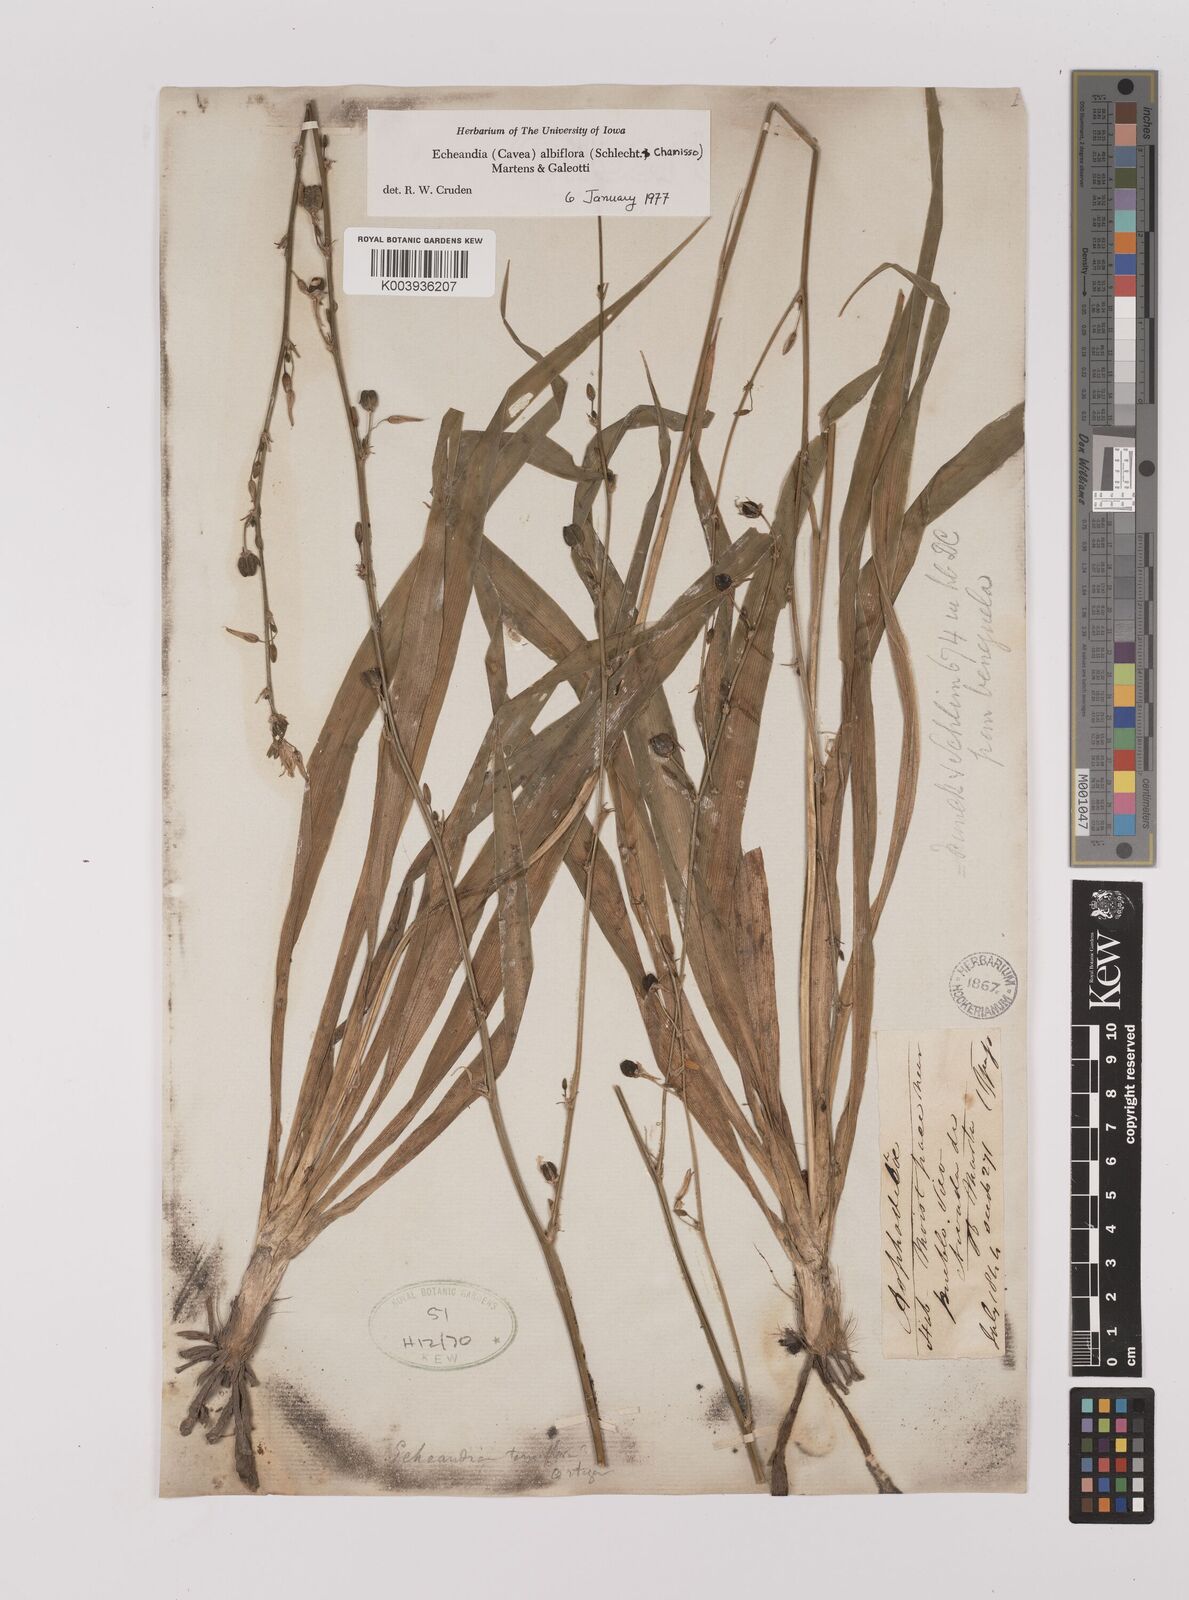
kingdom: Plantae
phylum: Tracheophyta
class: Liliopsida
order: Asparagales
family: Asparagaceae
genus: Echeandia
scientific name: Echeandia albiflora
